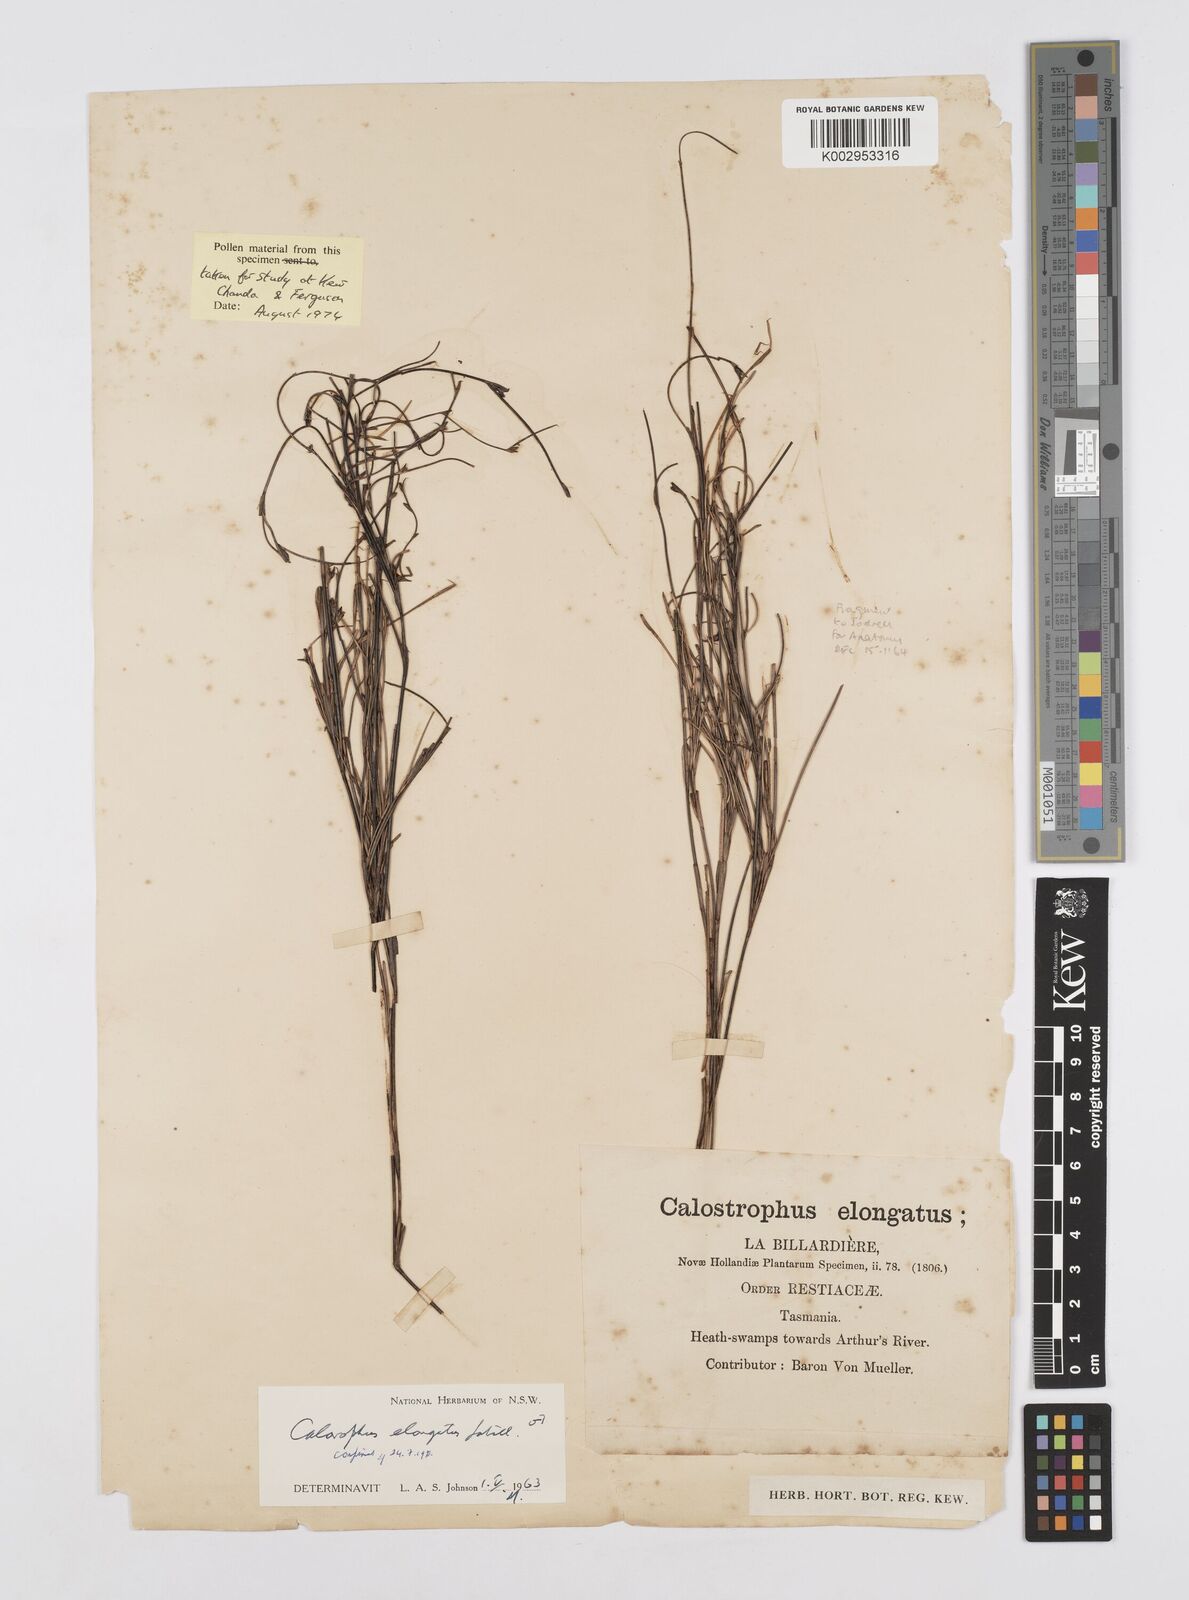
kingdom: Plantae
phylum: Tracheophyta
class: Liliopsida
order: Poales
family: Restionaceae
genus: Calorophus
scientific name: Calorophus elongatus
